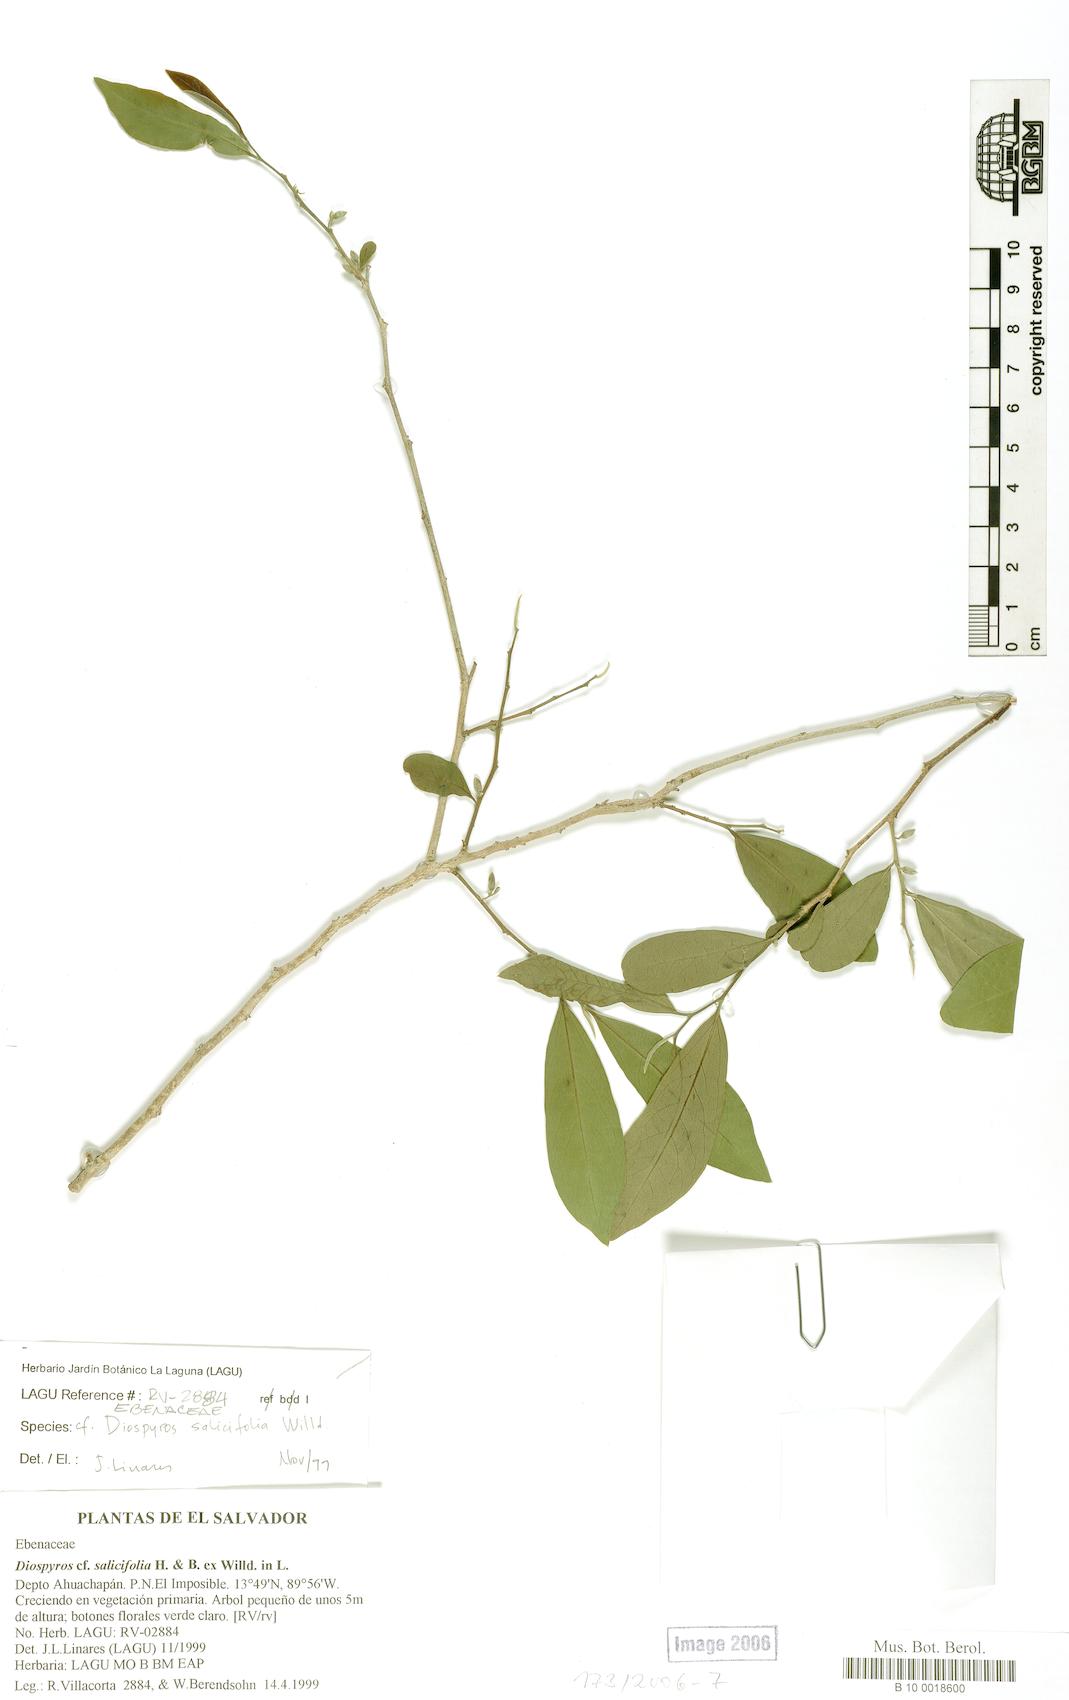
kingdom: Plantae
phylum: Tracheophyta
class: Magnoliopsida
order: Ericales
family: Ebenaceae
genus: Diospyros
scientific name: Diospyros salicifolia
